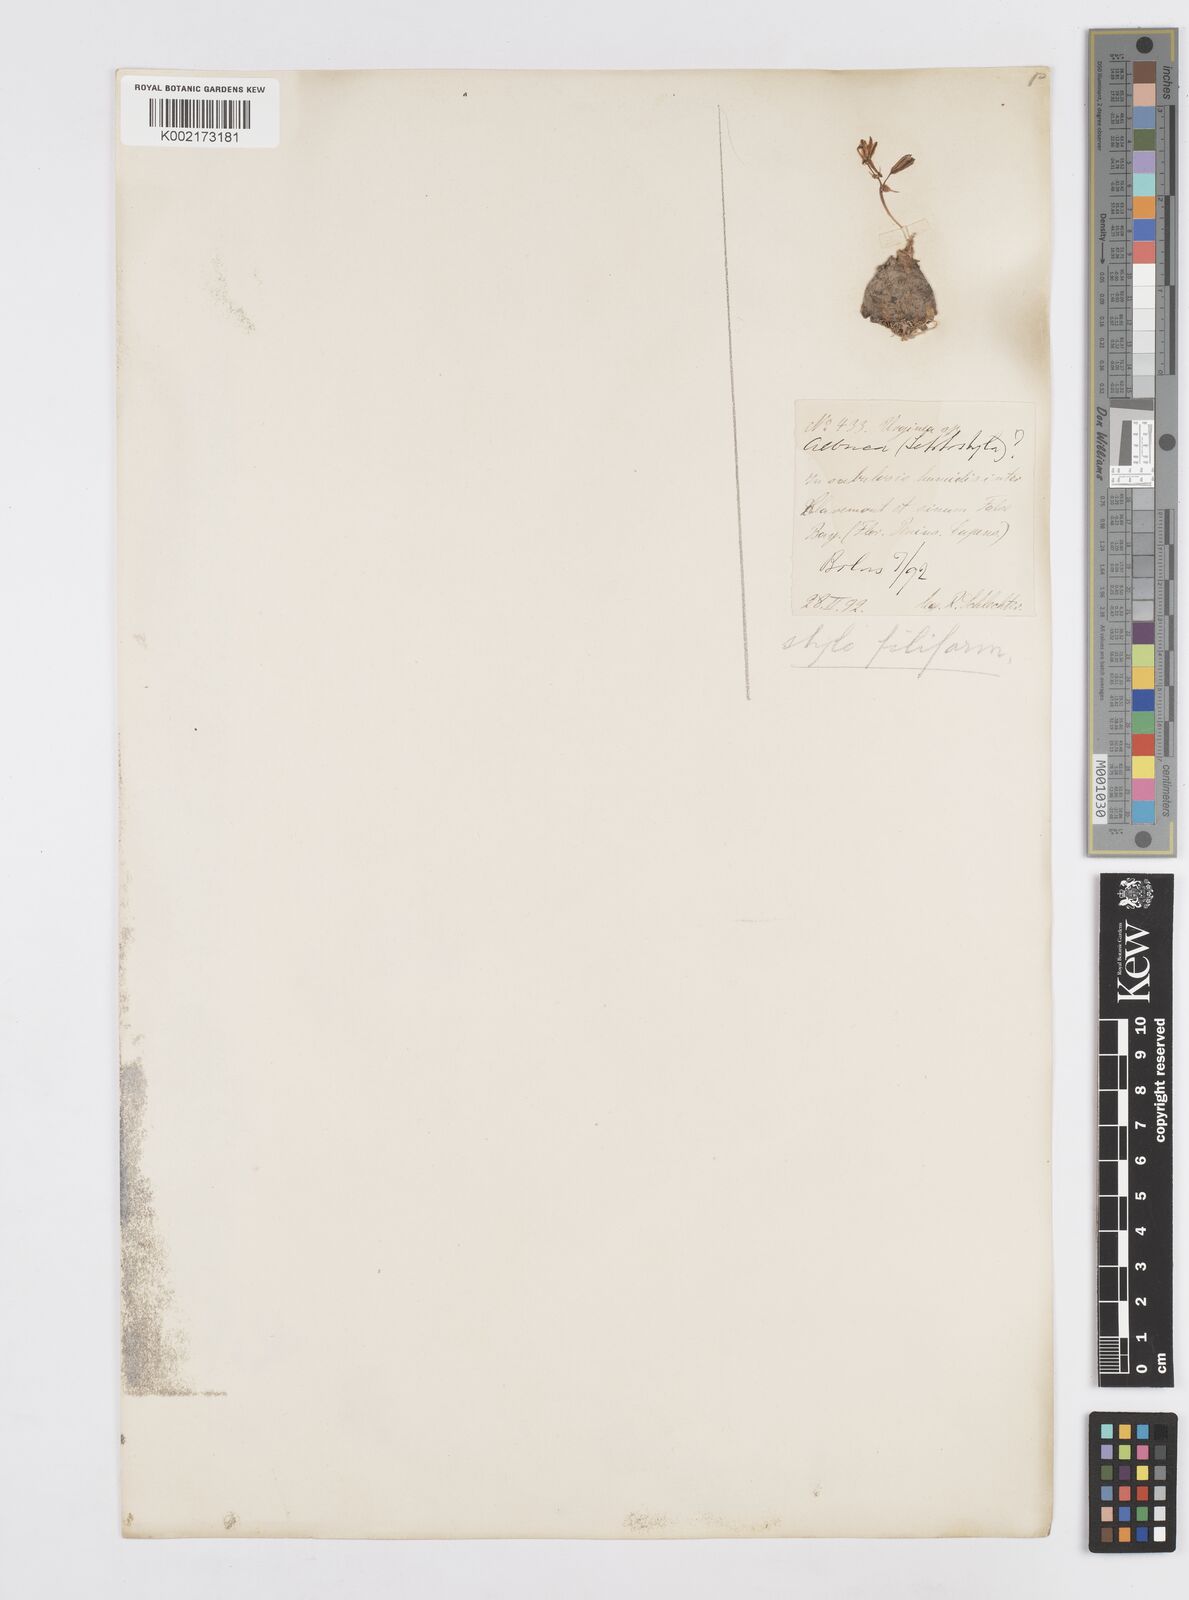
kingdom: Plantae
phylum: Tracheophyta
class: Liliopsida
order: Asparagales
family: Asparagaceae
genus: Albuca
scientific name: Albuca
